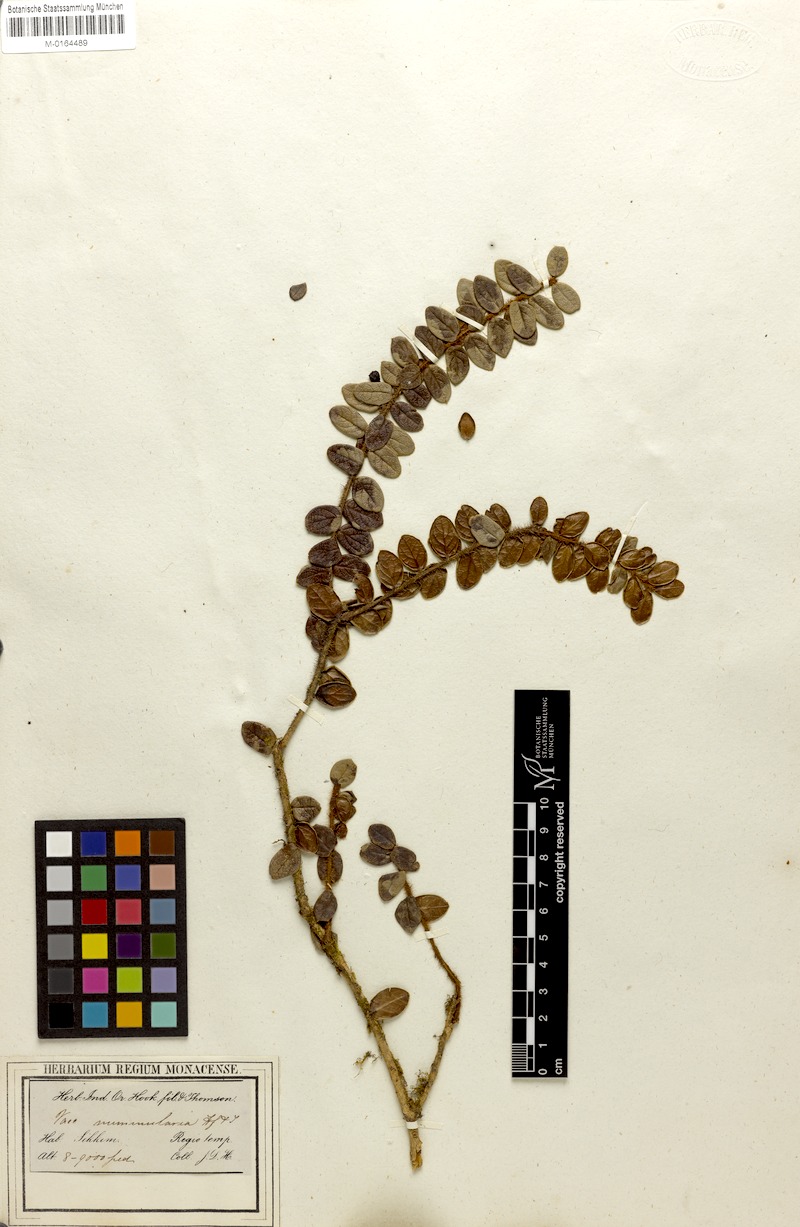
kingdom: Plantae
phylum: Tracheophyta
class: Magnoliopsida
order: Ericales
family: Ericaceae
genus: Vaccinium
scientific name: Vaccinium nummularia
